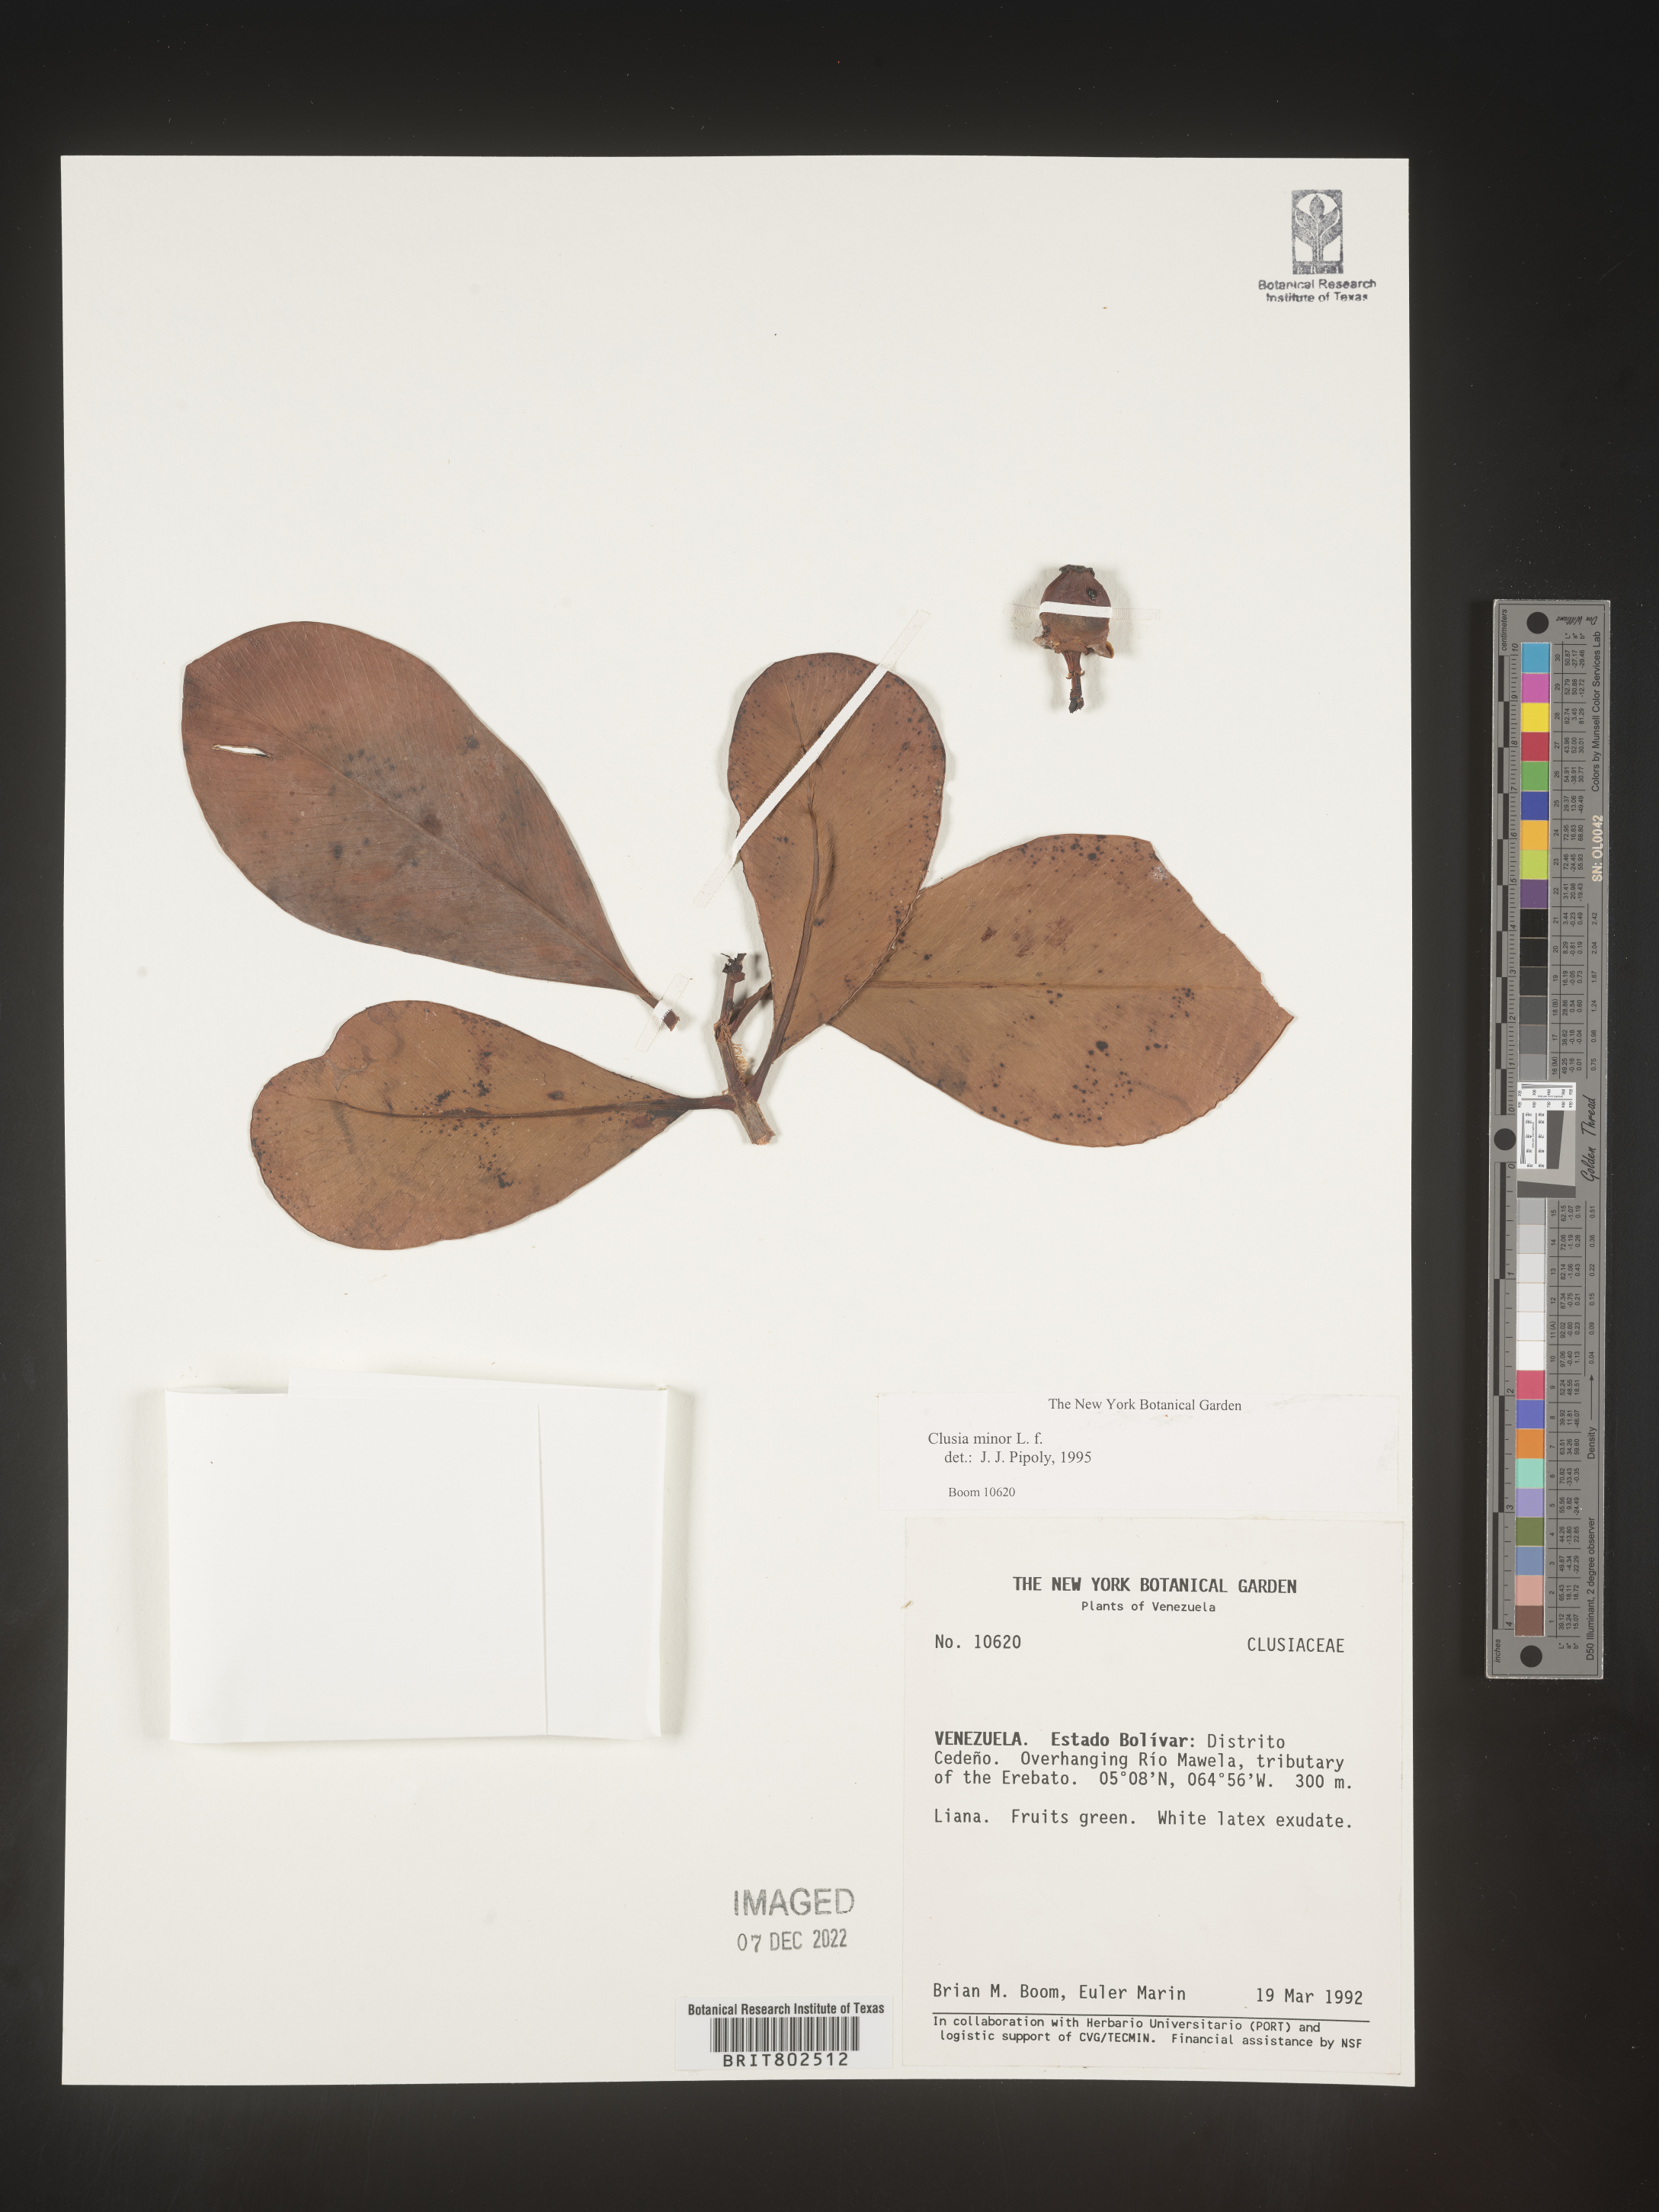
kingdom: Plantae
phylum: Tracheophyta
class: Magnoliopsida
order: Malpighiales
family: Clusiaceae
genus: Clusia
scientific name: Clusia minor
